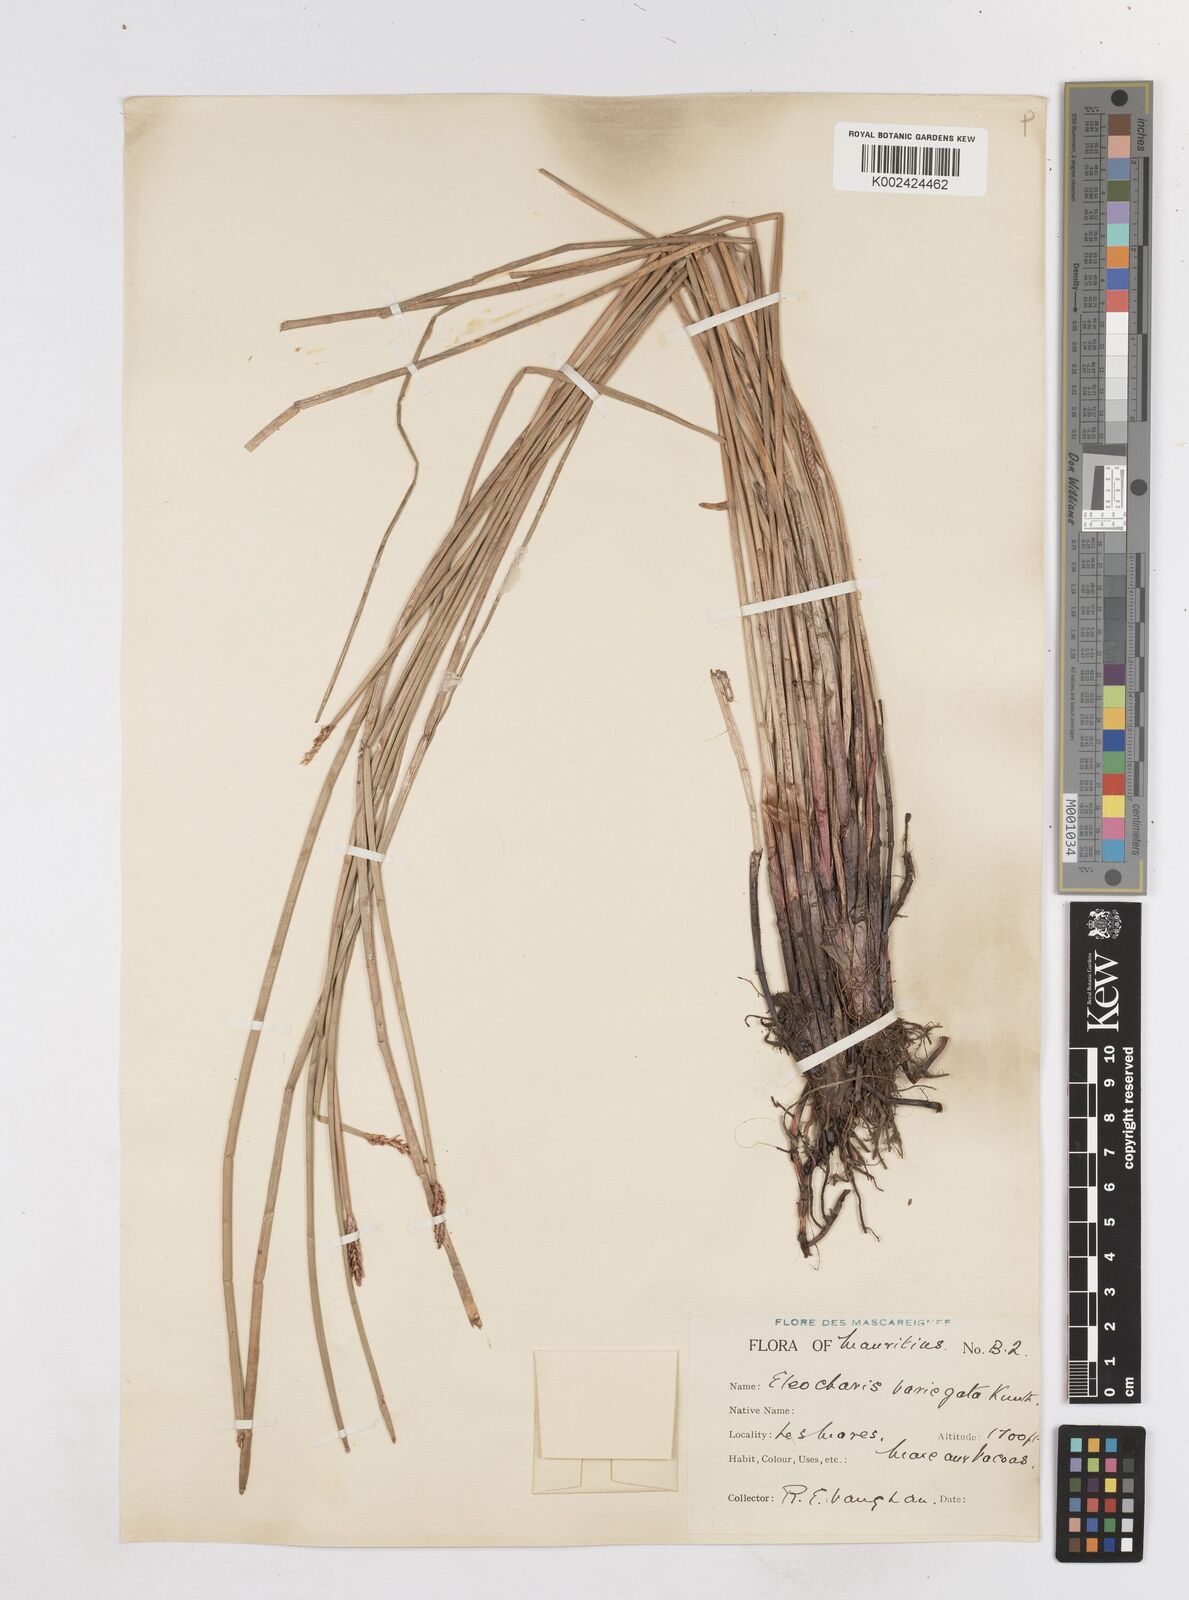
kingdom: Plantae
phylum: Tracheophyta
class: Liliopsida
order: Poales
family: Cyperaceae
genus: Eleocharis
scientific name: Eleocharis variegata
